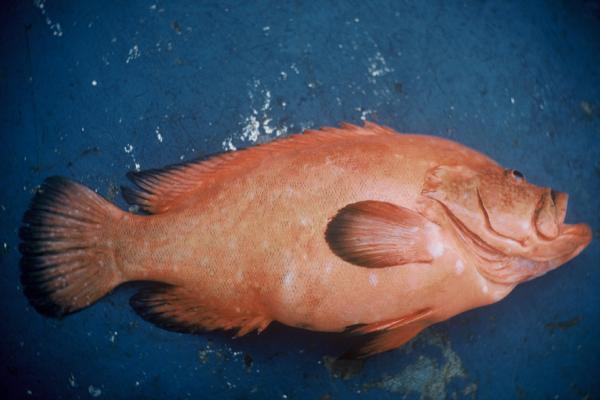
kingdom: Animalia
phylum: Chordata
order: Perciformes
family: Serranidae
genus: Cephalopholis
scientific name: Cephalopholis sonnerati
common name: Tomato hind
